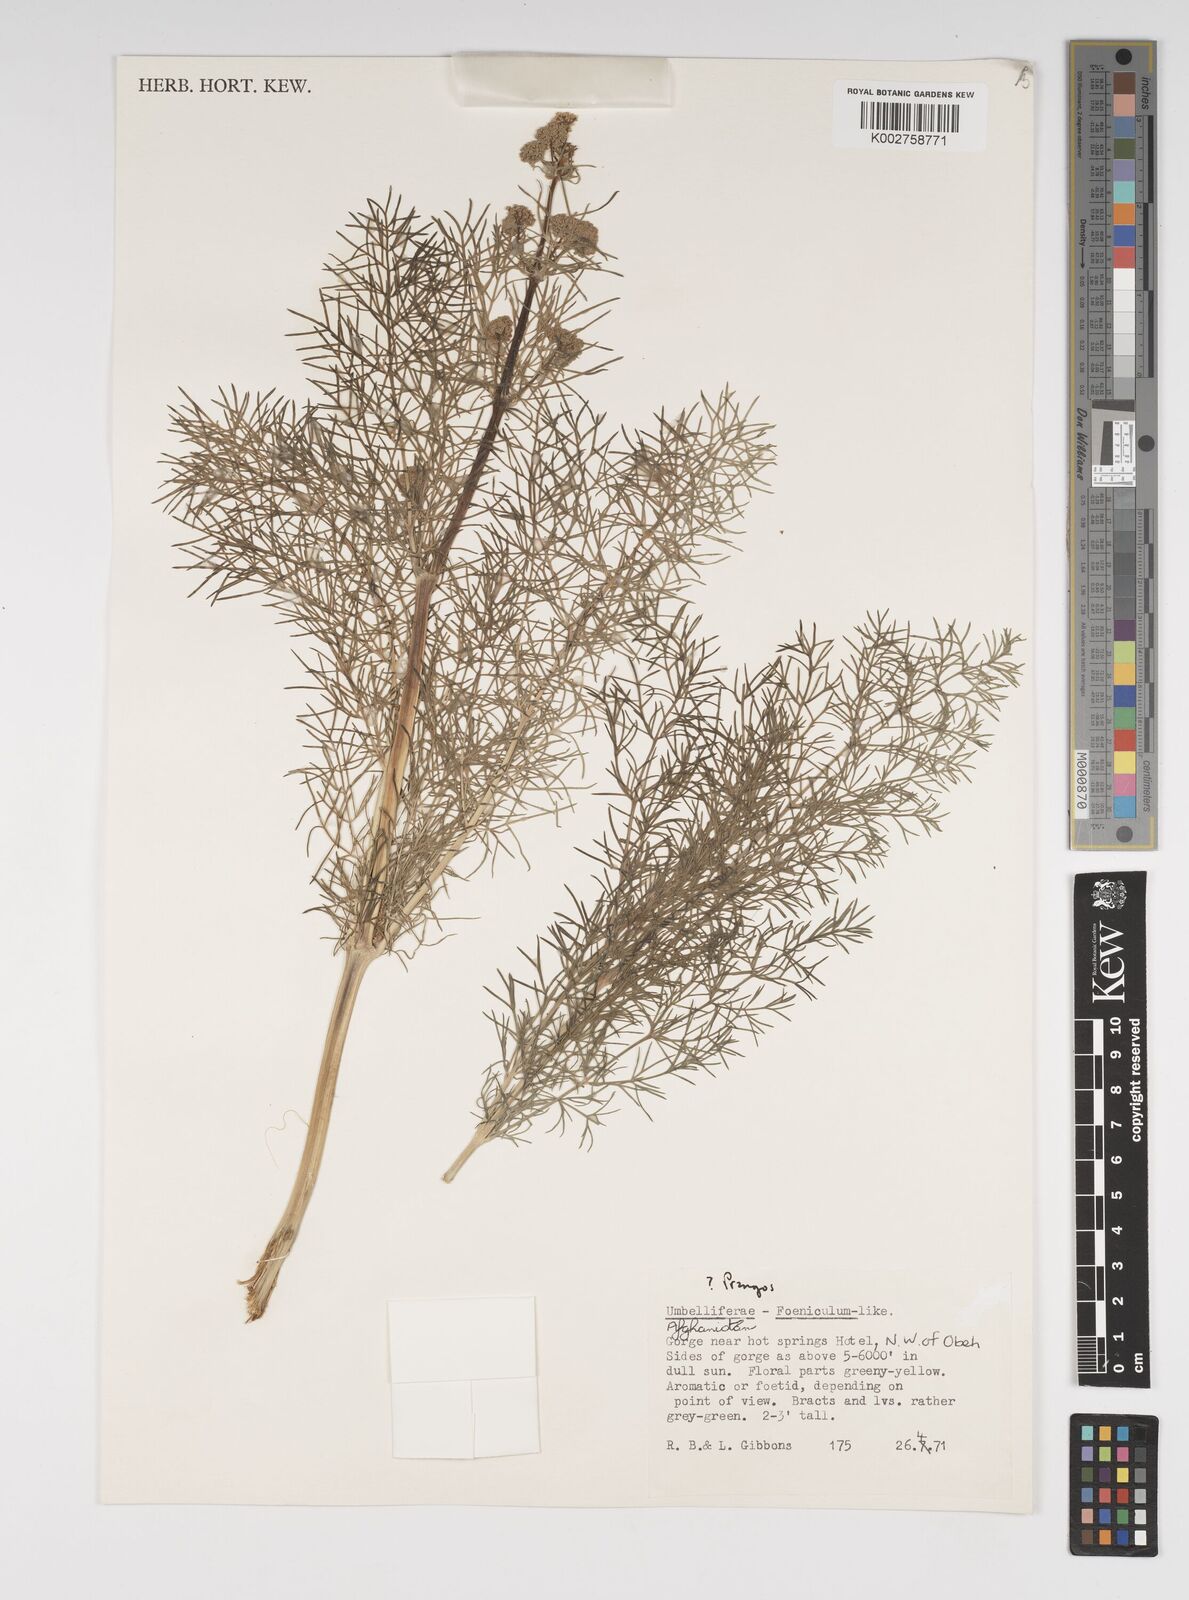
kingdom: Plantae
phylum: Tracheophyta
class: Magnoliopsida
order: Apiales
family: Apiaceae
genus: Cachrys
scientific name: Cachrys
